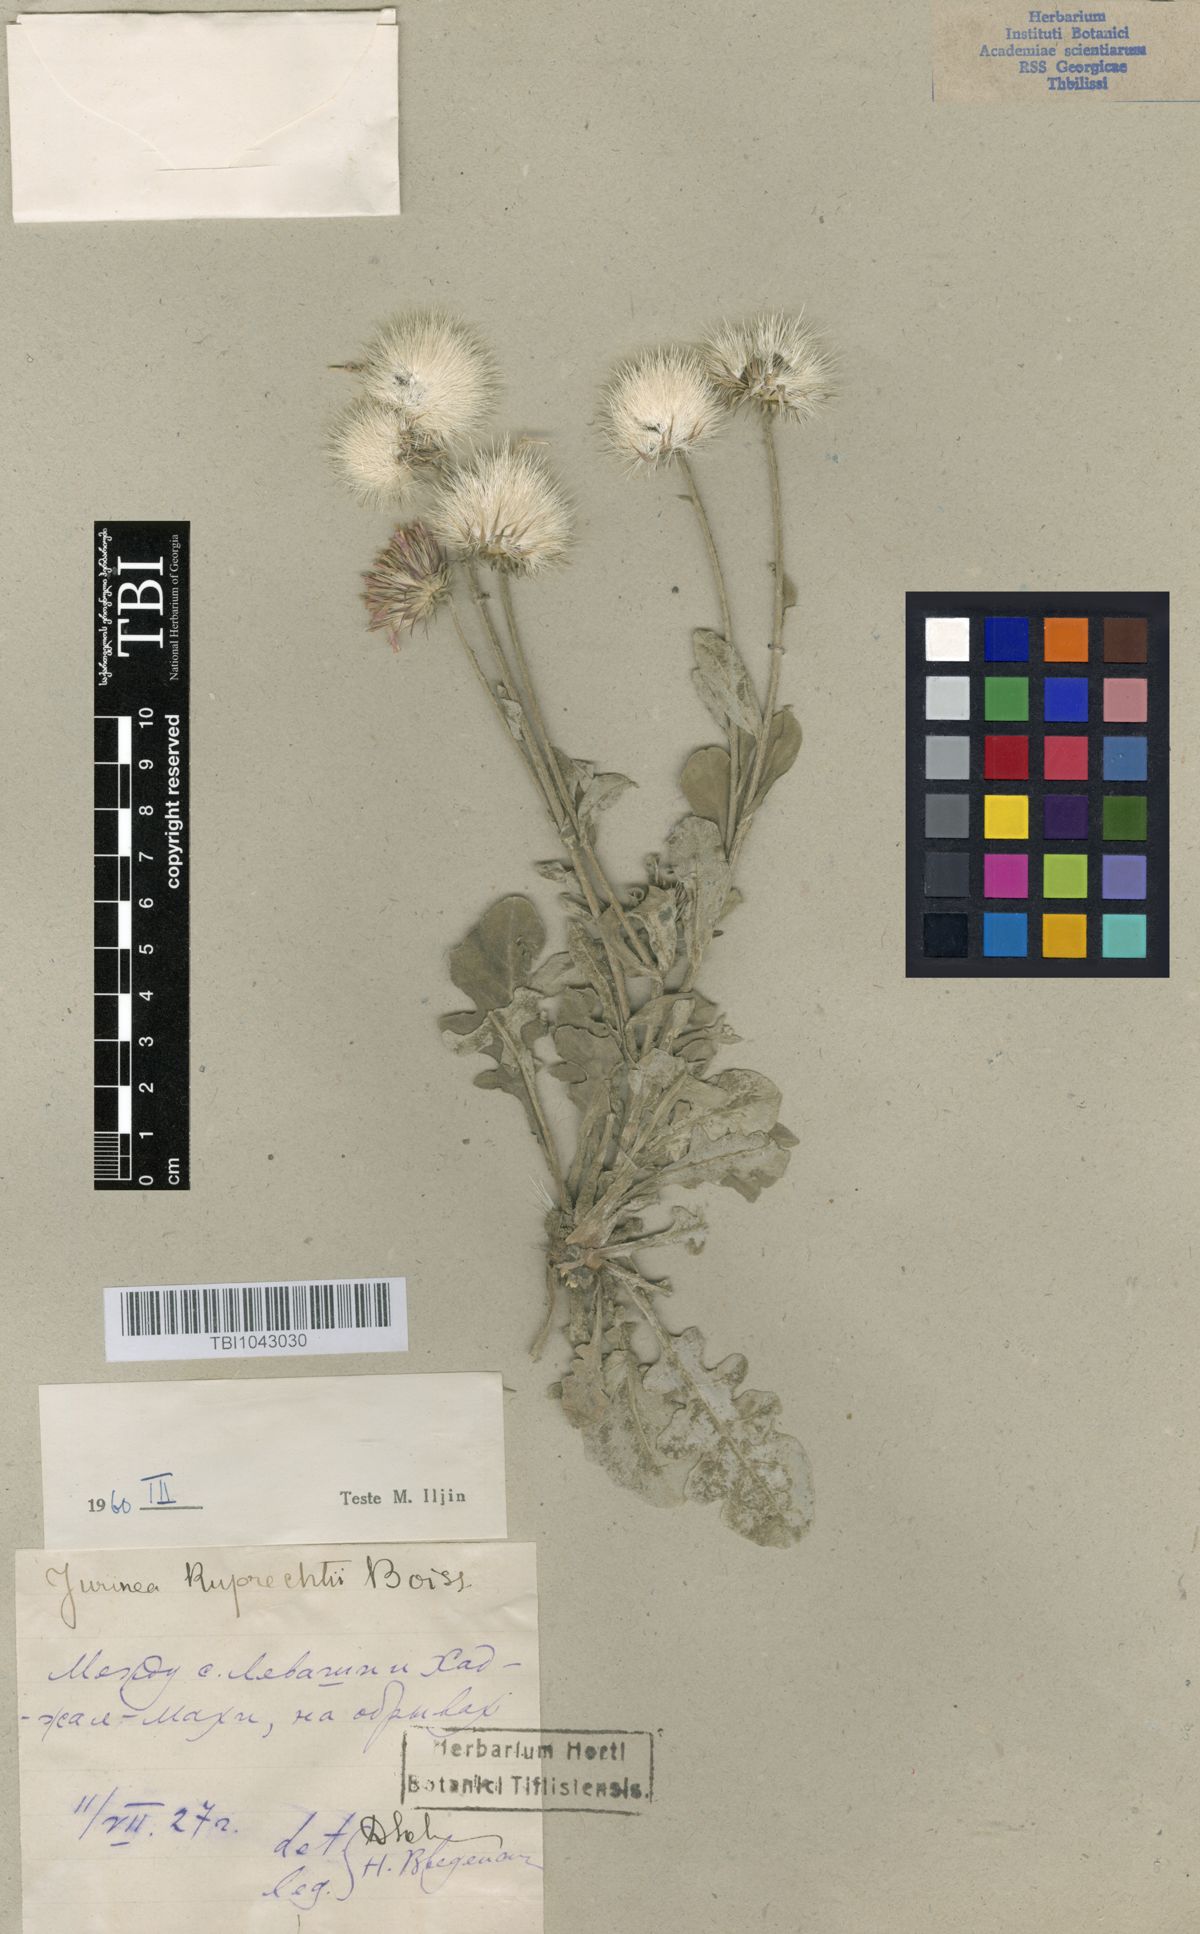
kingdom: Plantae
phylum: Tracheophyta
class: Magnoliopsida
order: Asterales
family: Asteraceae
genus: Jurinea
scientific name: Jurinea ruprechtii
